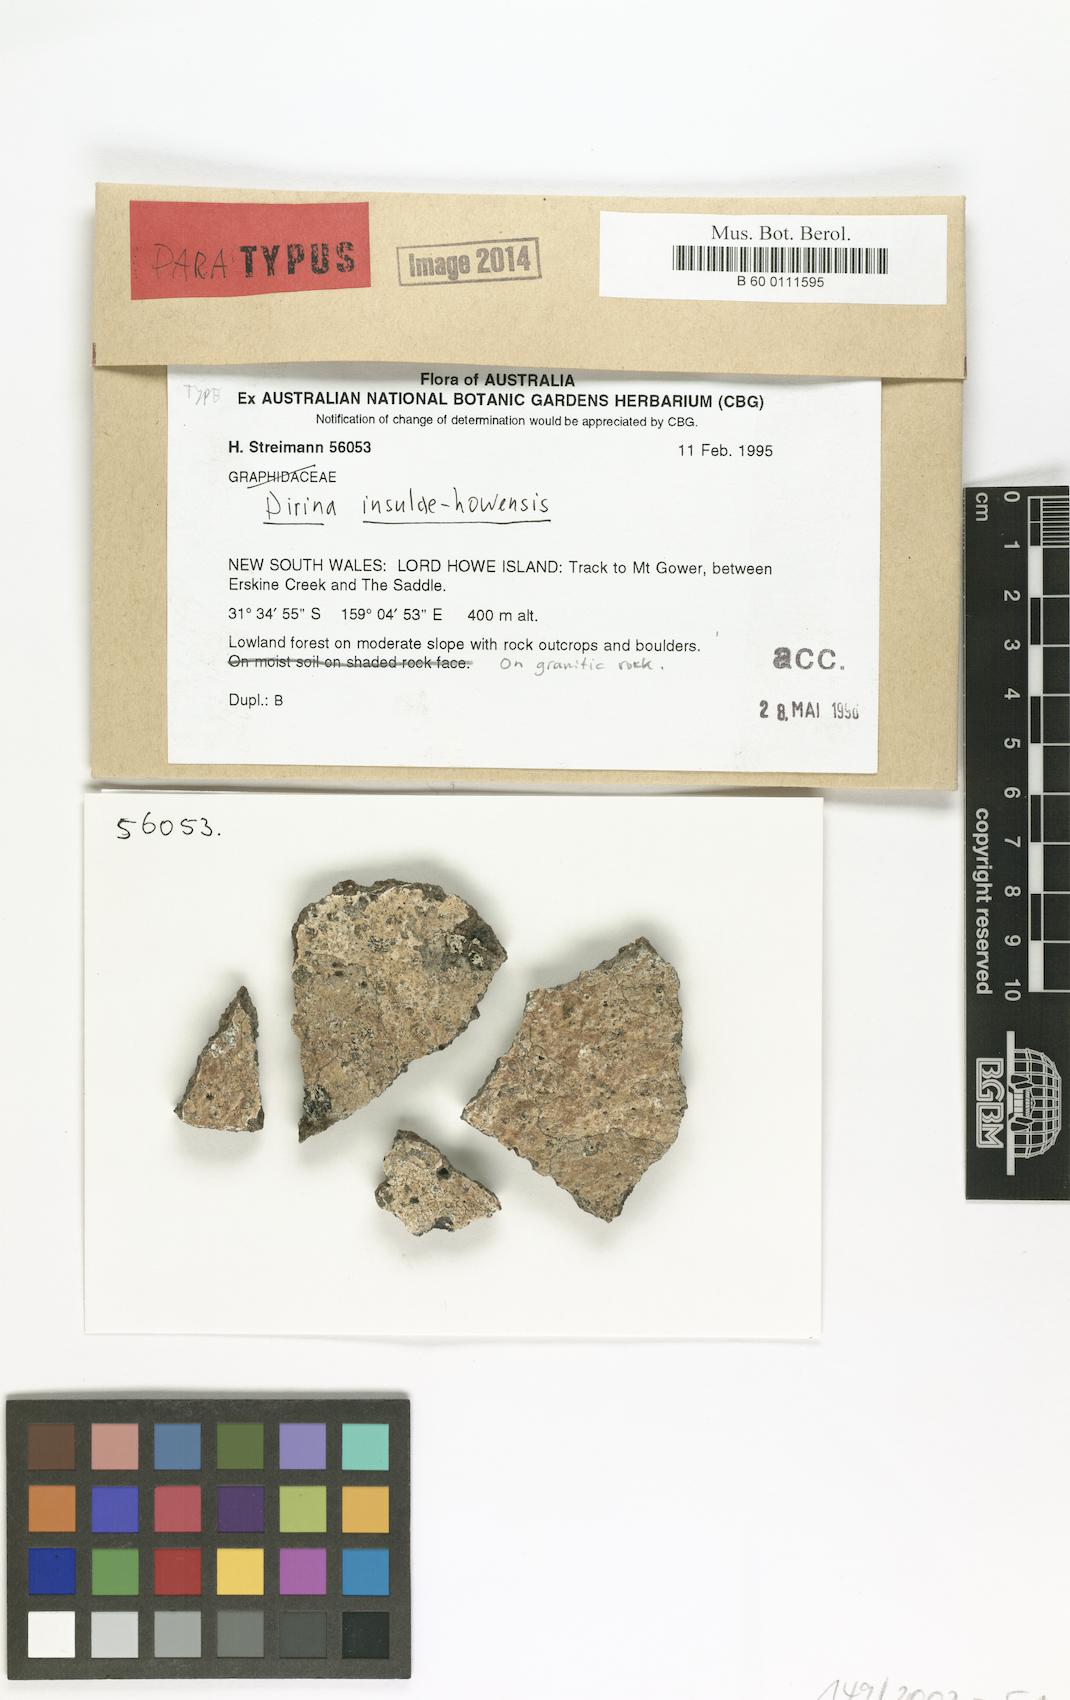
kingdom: Fungi
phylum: Ascomycota
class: Arthoniomycetes
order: Arthoniales
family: Roccellaceae
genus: Schismatomma
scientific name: Schismatomma insulae-howense
